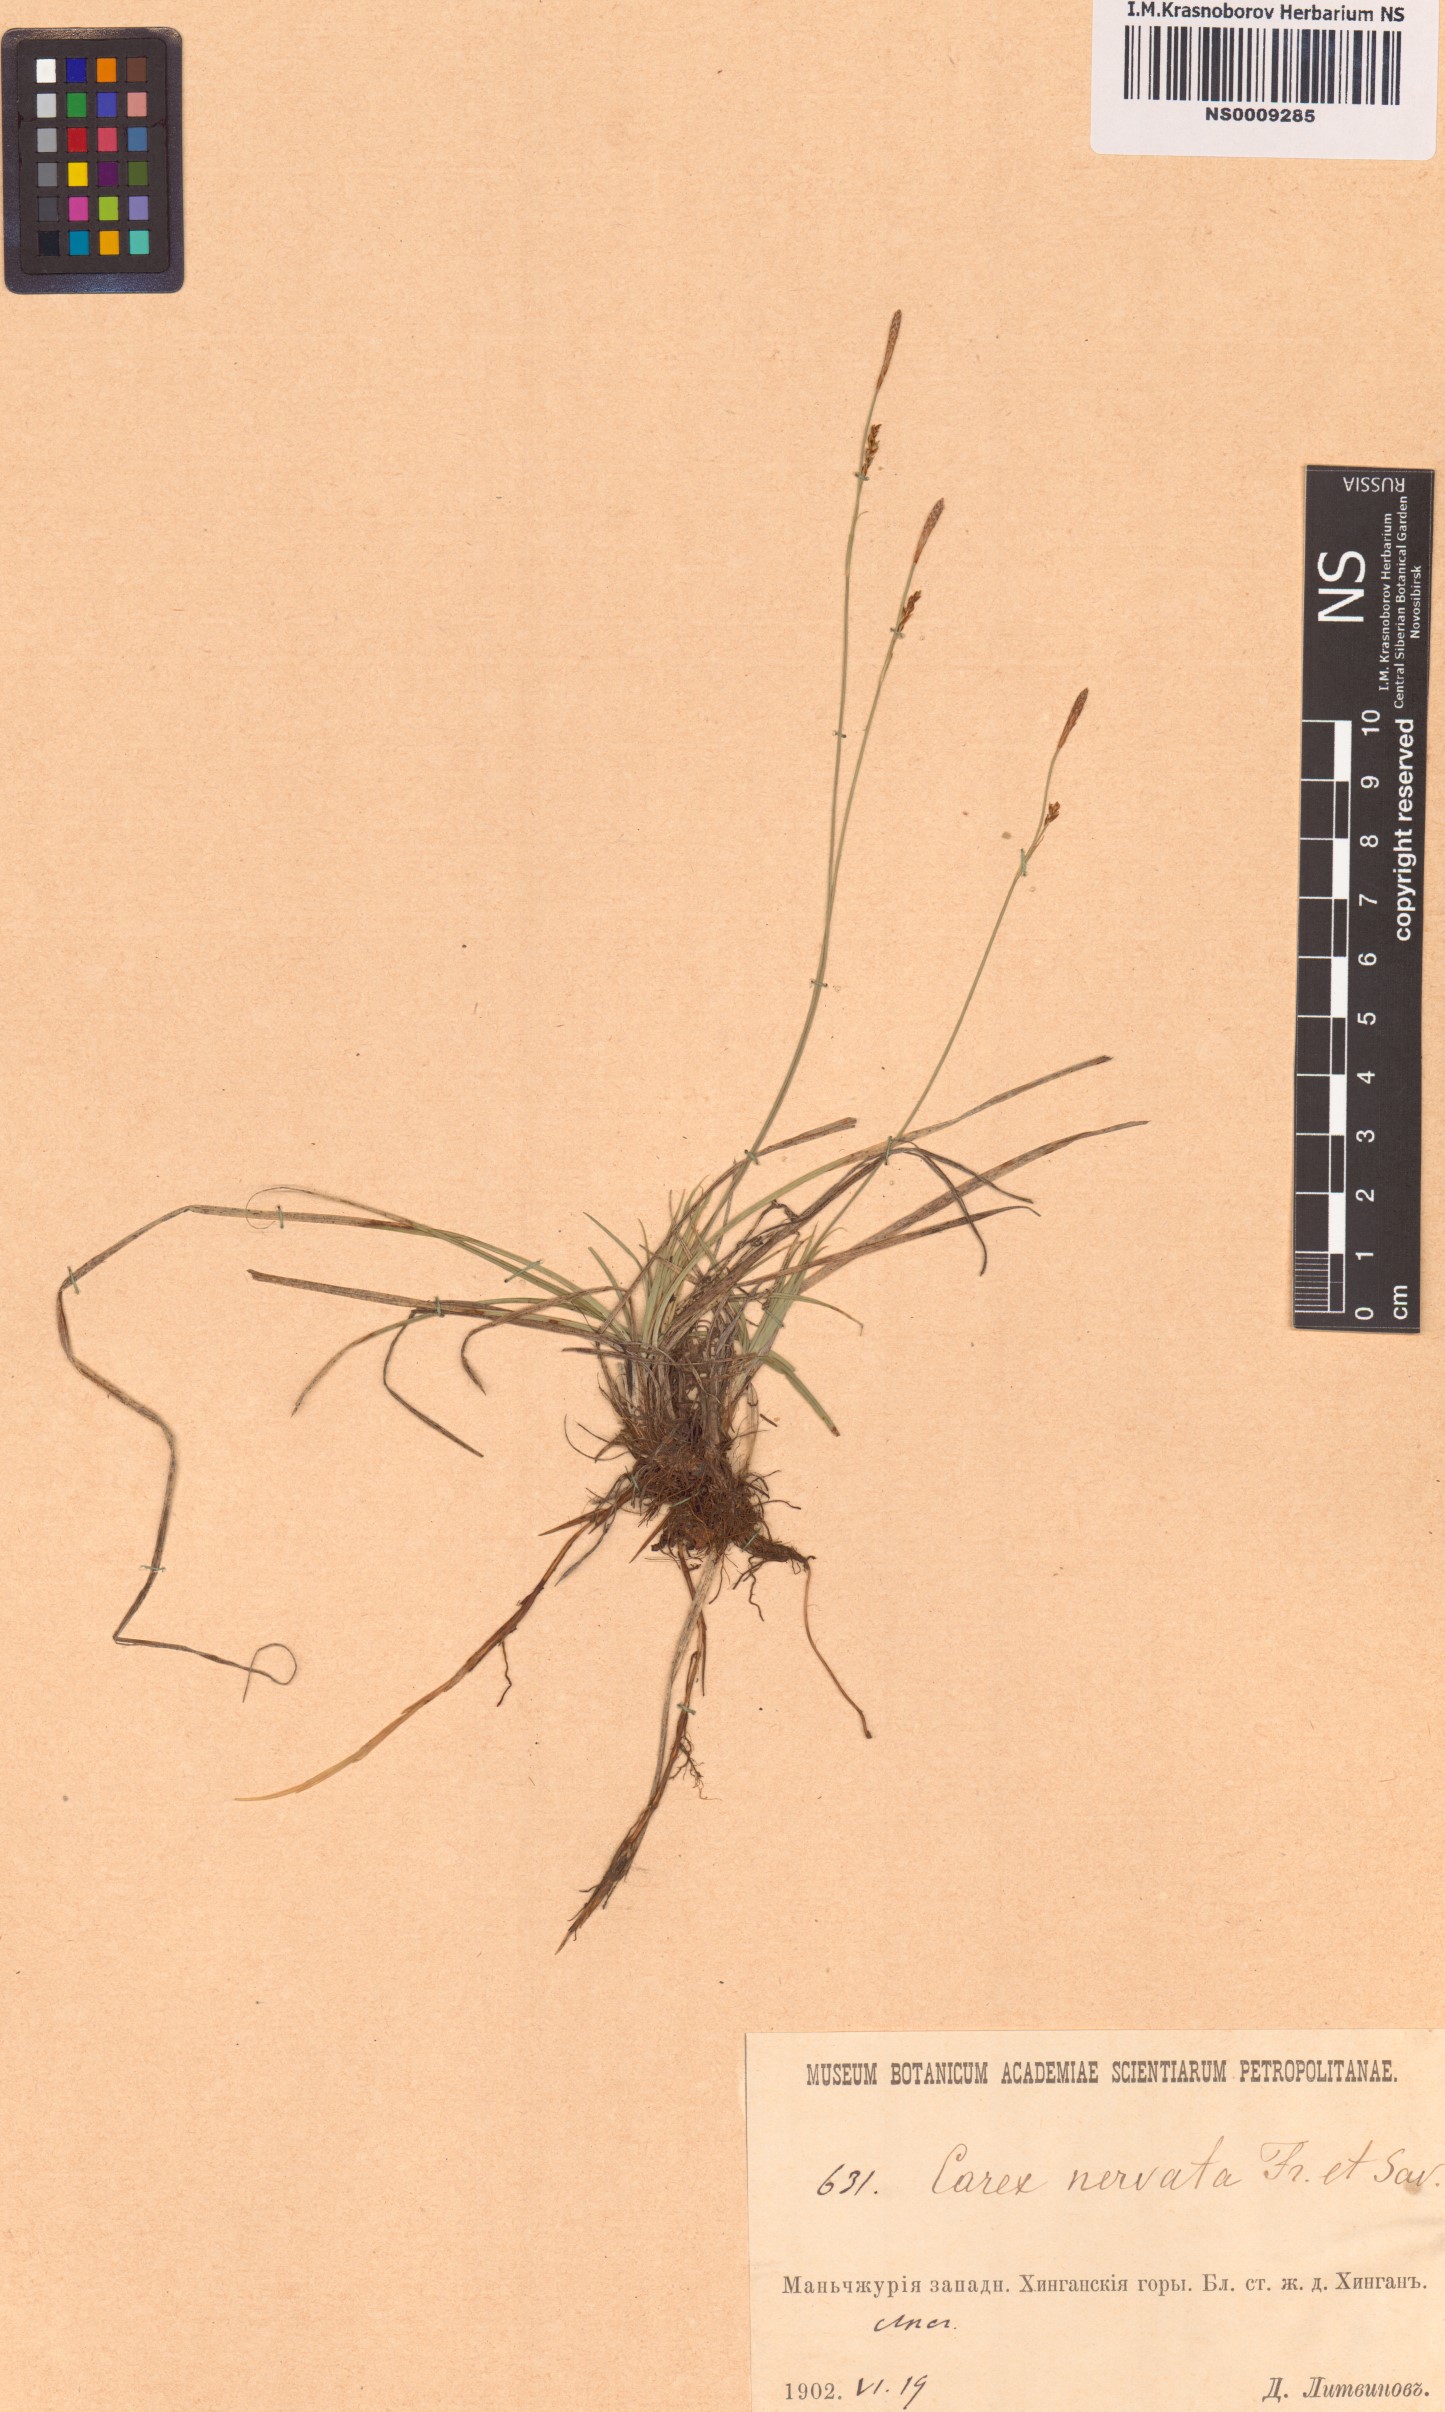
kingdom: Plantae
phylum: Tracheophyta
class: Liliopsida
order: Poales
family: Cyperaceae
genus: Carex
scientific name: Carex nervata
